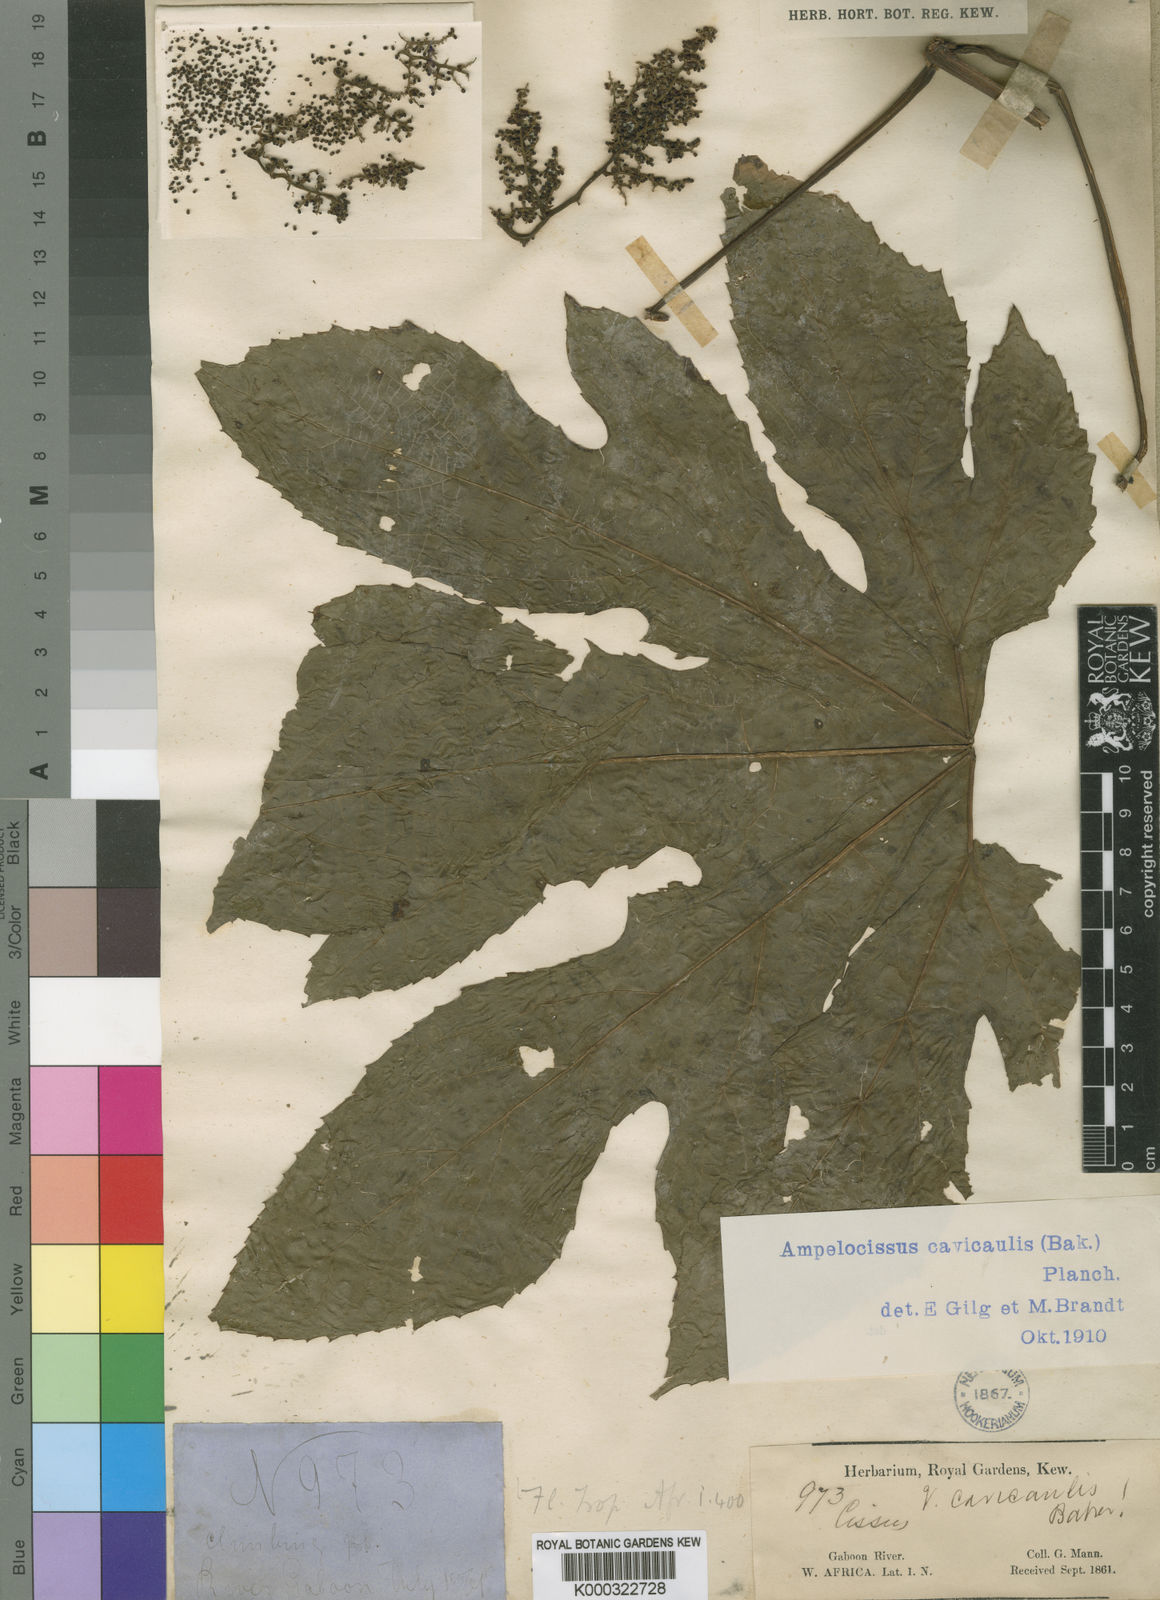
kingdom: Plantae
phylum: Tracheophyta
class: Magnoliopsida
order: Vitales
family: Vitaceae
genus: Ampelocissus
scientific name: Ampelocissus abyssinica
